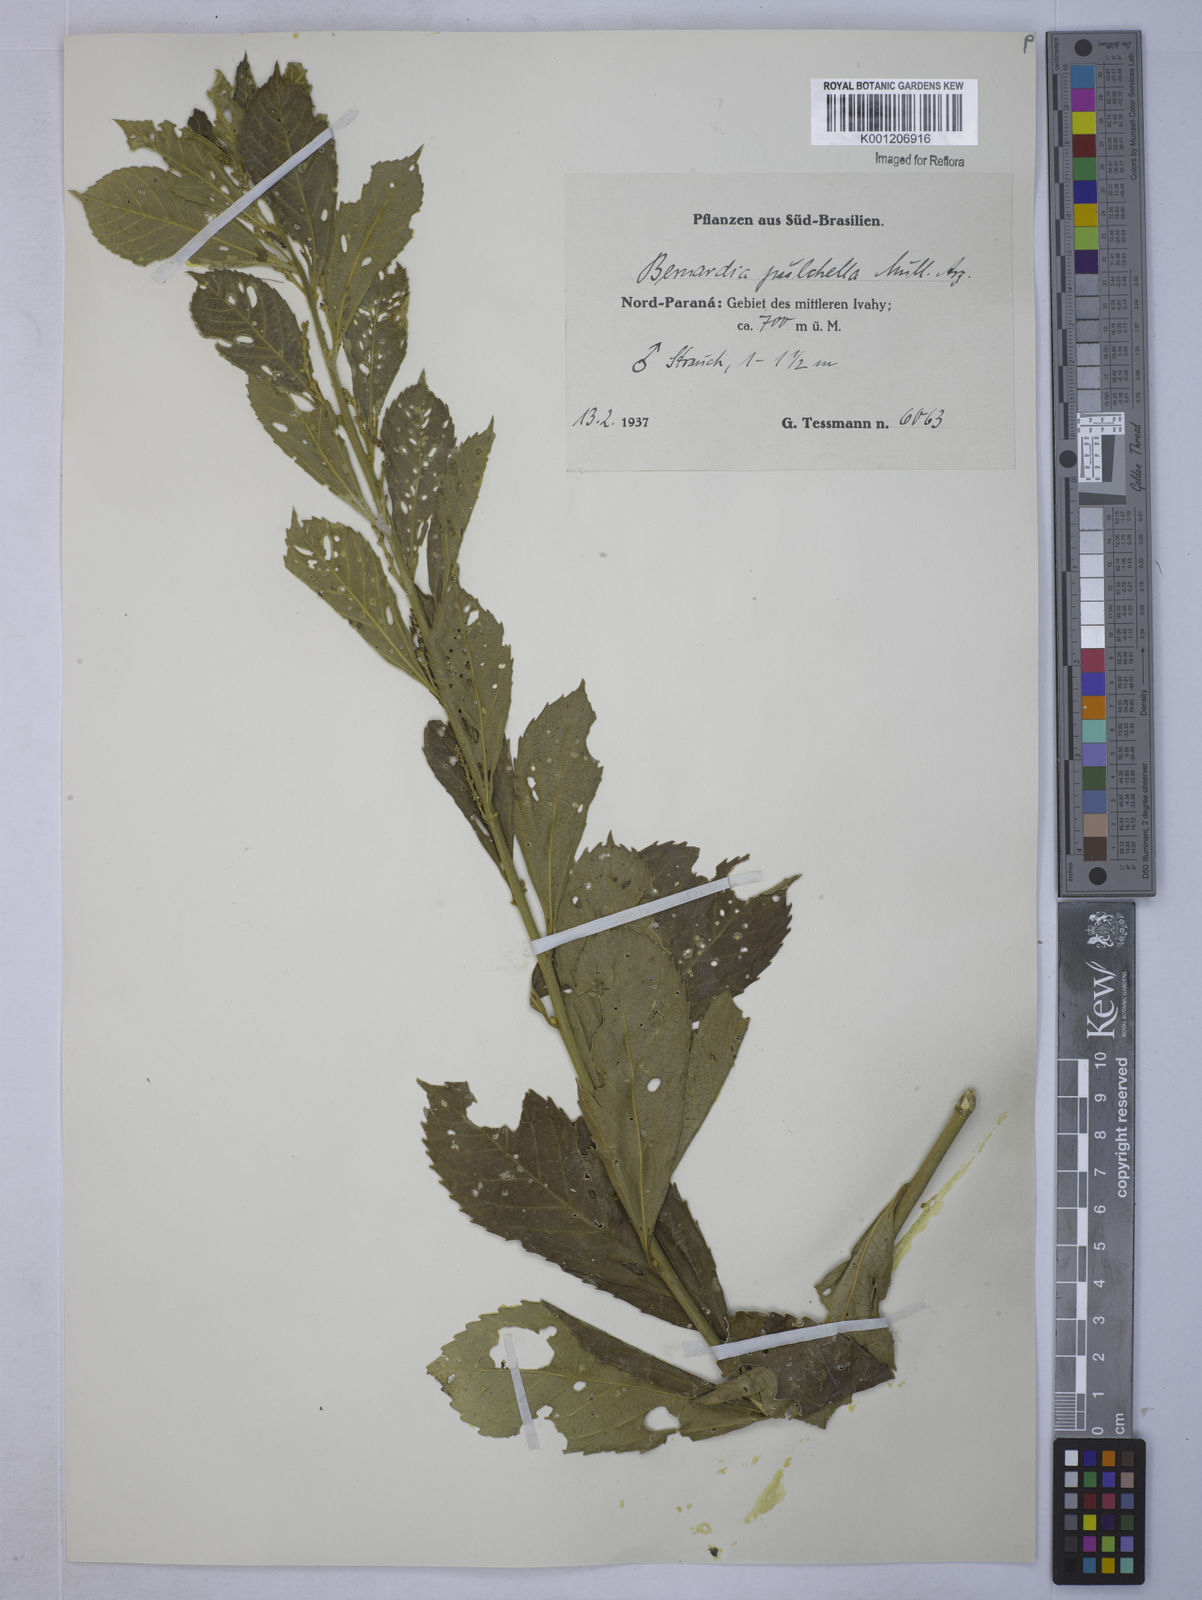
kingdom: Plantae
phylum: Tracheophyta
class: Magnoliopsida
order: Malpighiales
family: Euphorbiaceae
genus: Bernardia
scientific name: Bernardia
